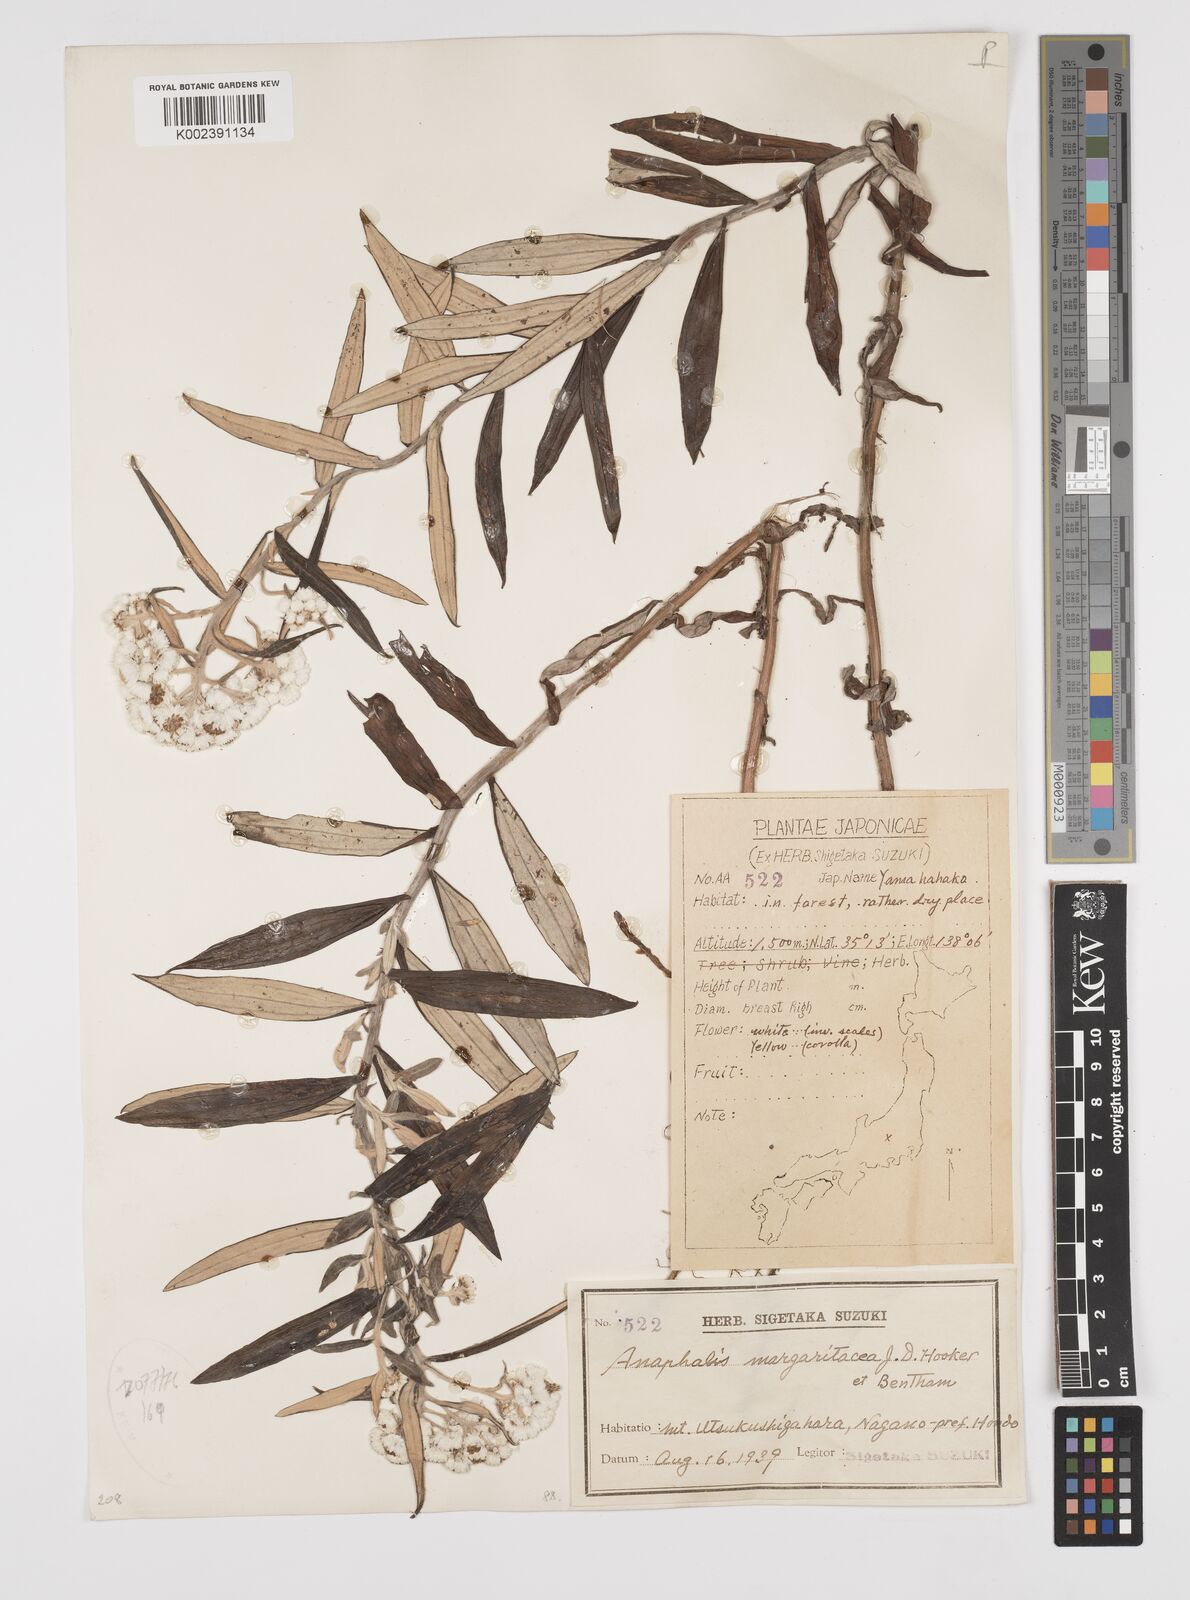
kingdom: Plantae
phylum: Tracheophyta
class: Magnoliopsida
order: Asterales
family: Asteraceae
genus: Anaphalis
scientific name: Anaphalis margaritacea
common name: Pearly everlasting
